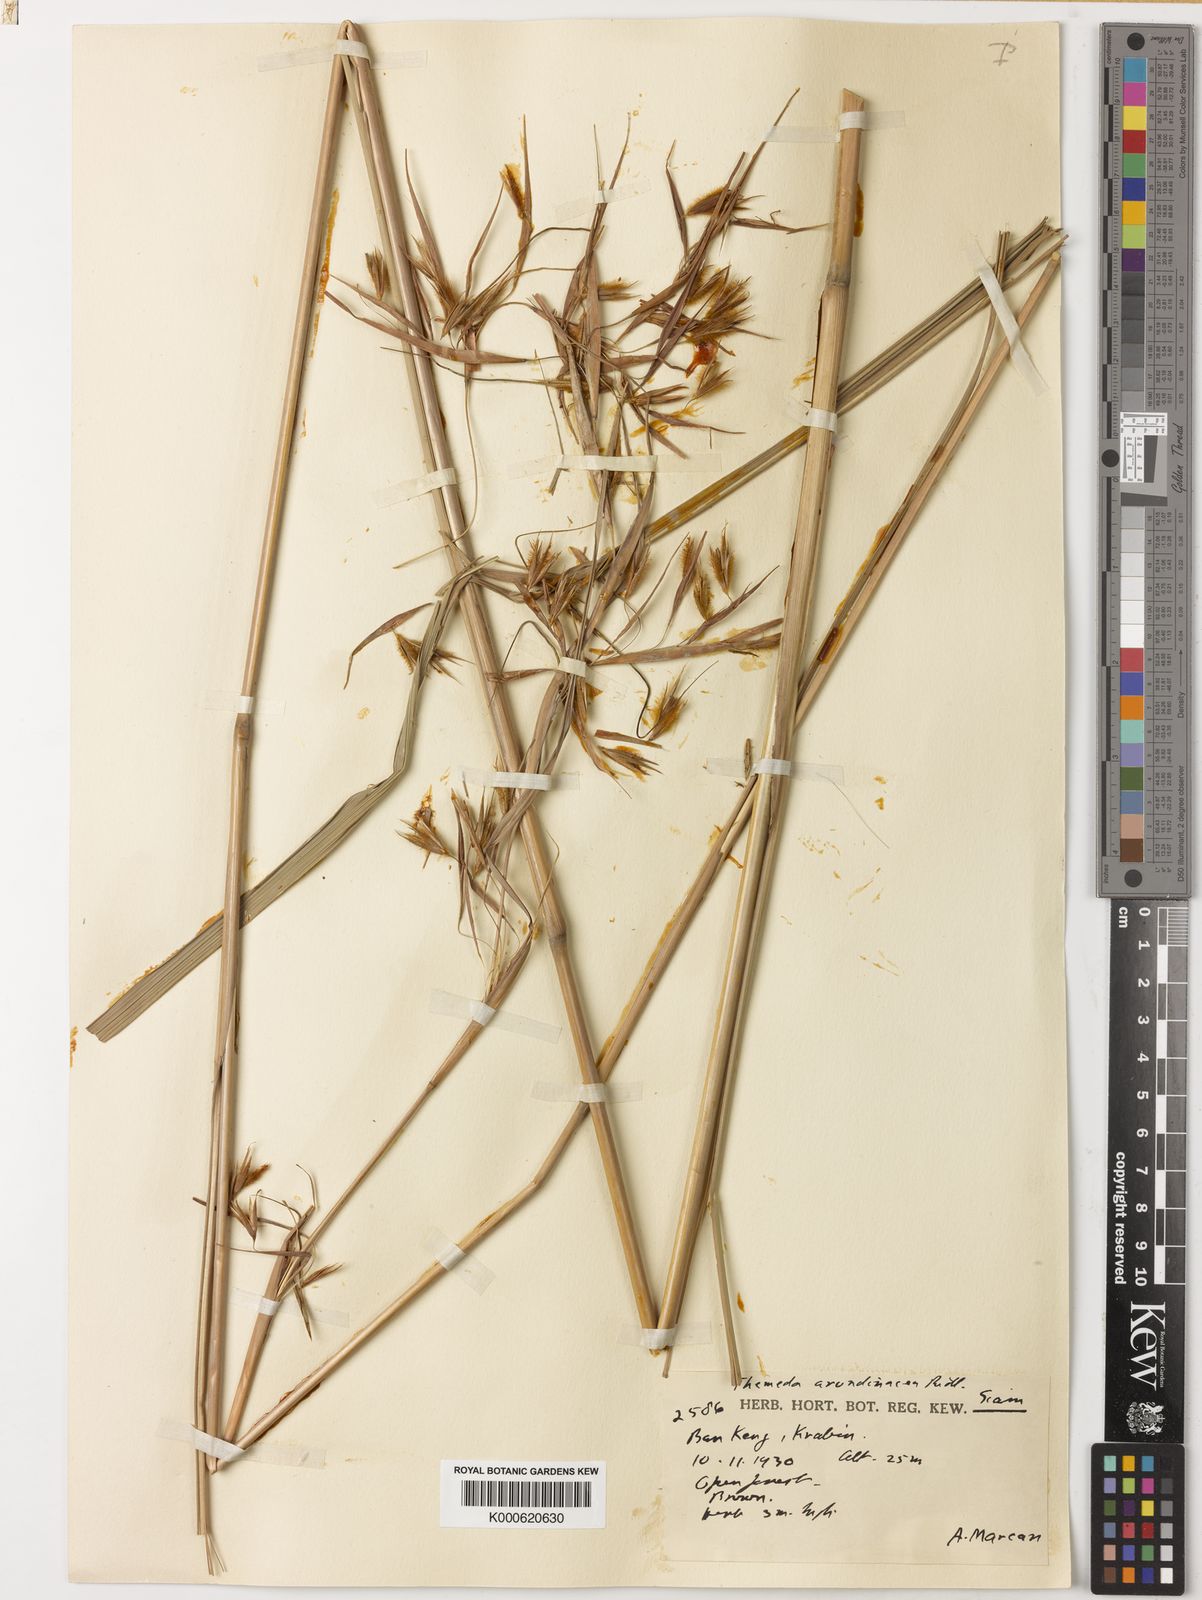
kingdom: Plantae
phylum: Tracheophyta
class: Liliopsida
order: Poales
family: Poaceae
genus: Themeda
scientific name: Themeda arundinacea
